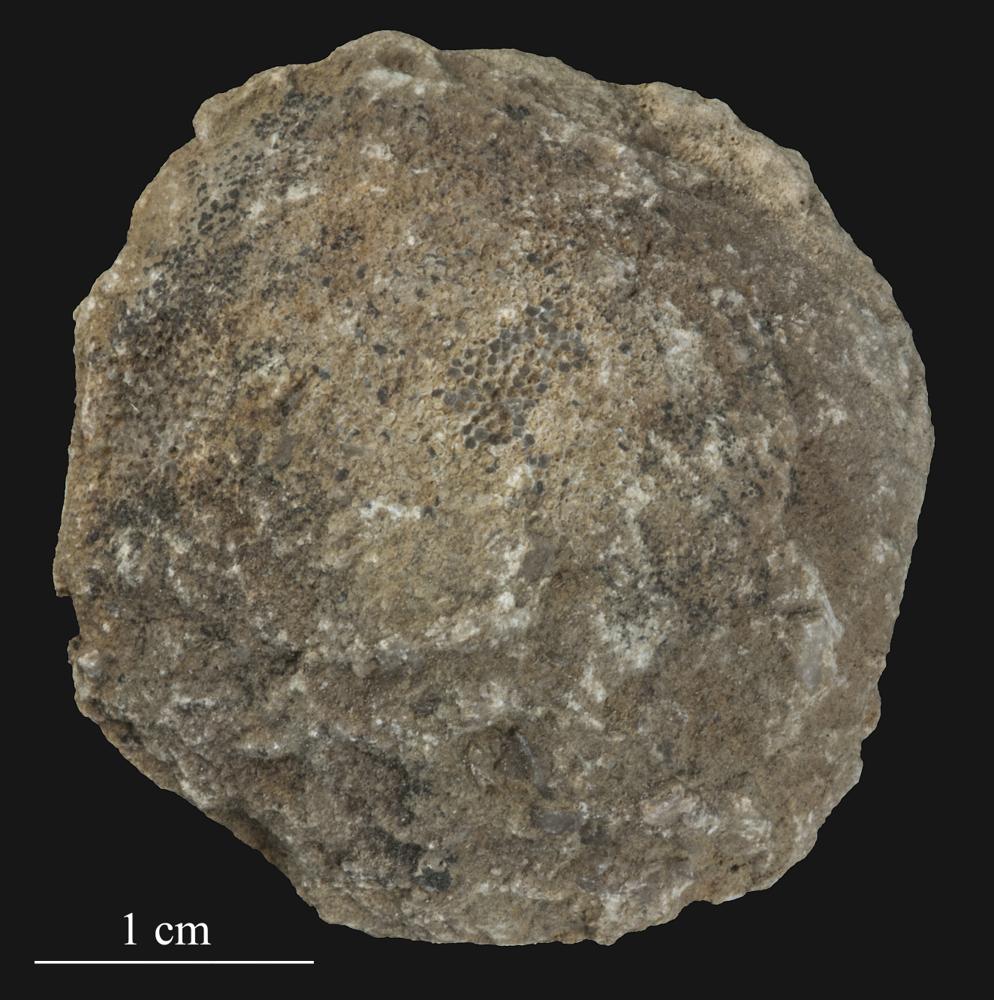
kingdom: Animalia
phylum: Bryozoa
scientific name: Bryozoa
